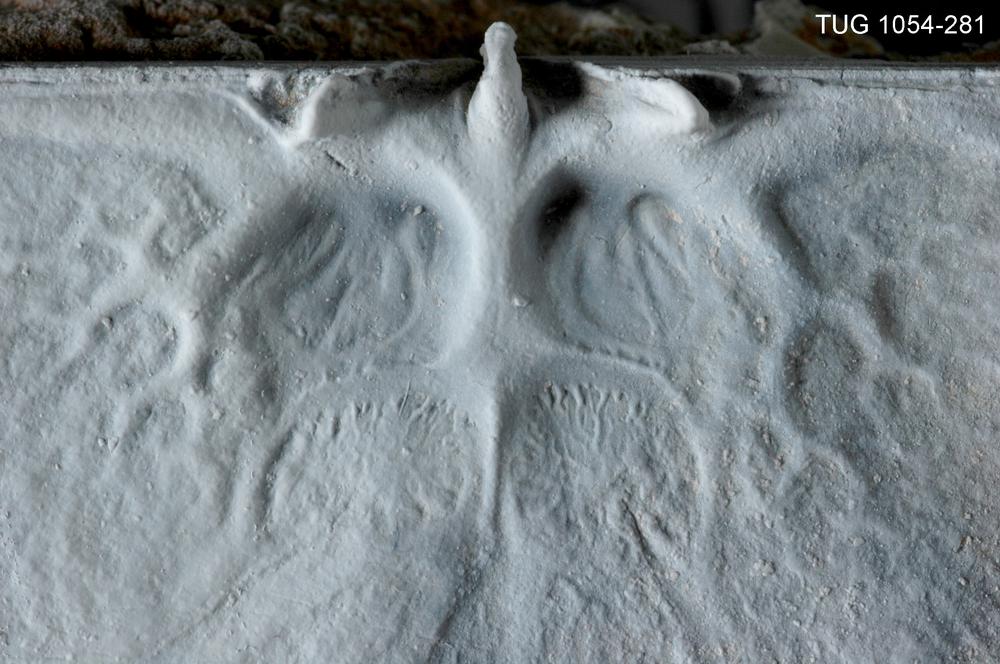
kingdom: Animalia
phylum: Brachiopoda
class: Rhynchonellata
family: Orthidae
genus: Cyrtonotella
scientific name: Cyrtonotella Orthis kuckersiana
